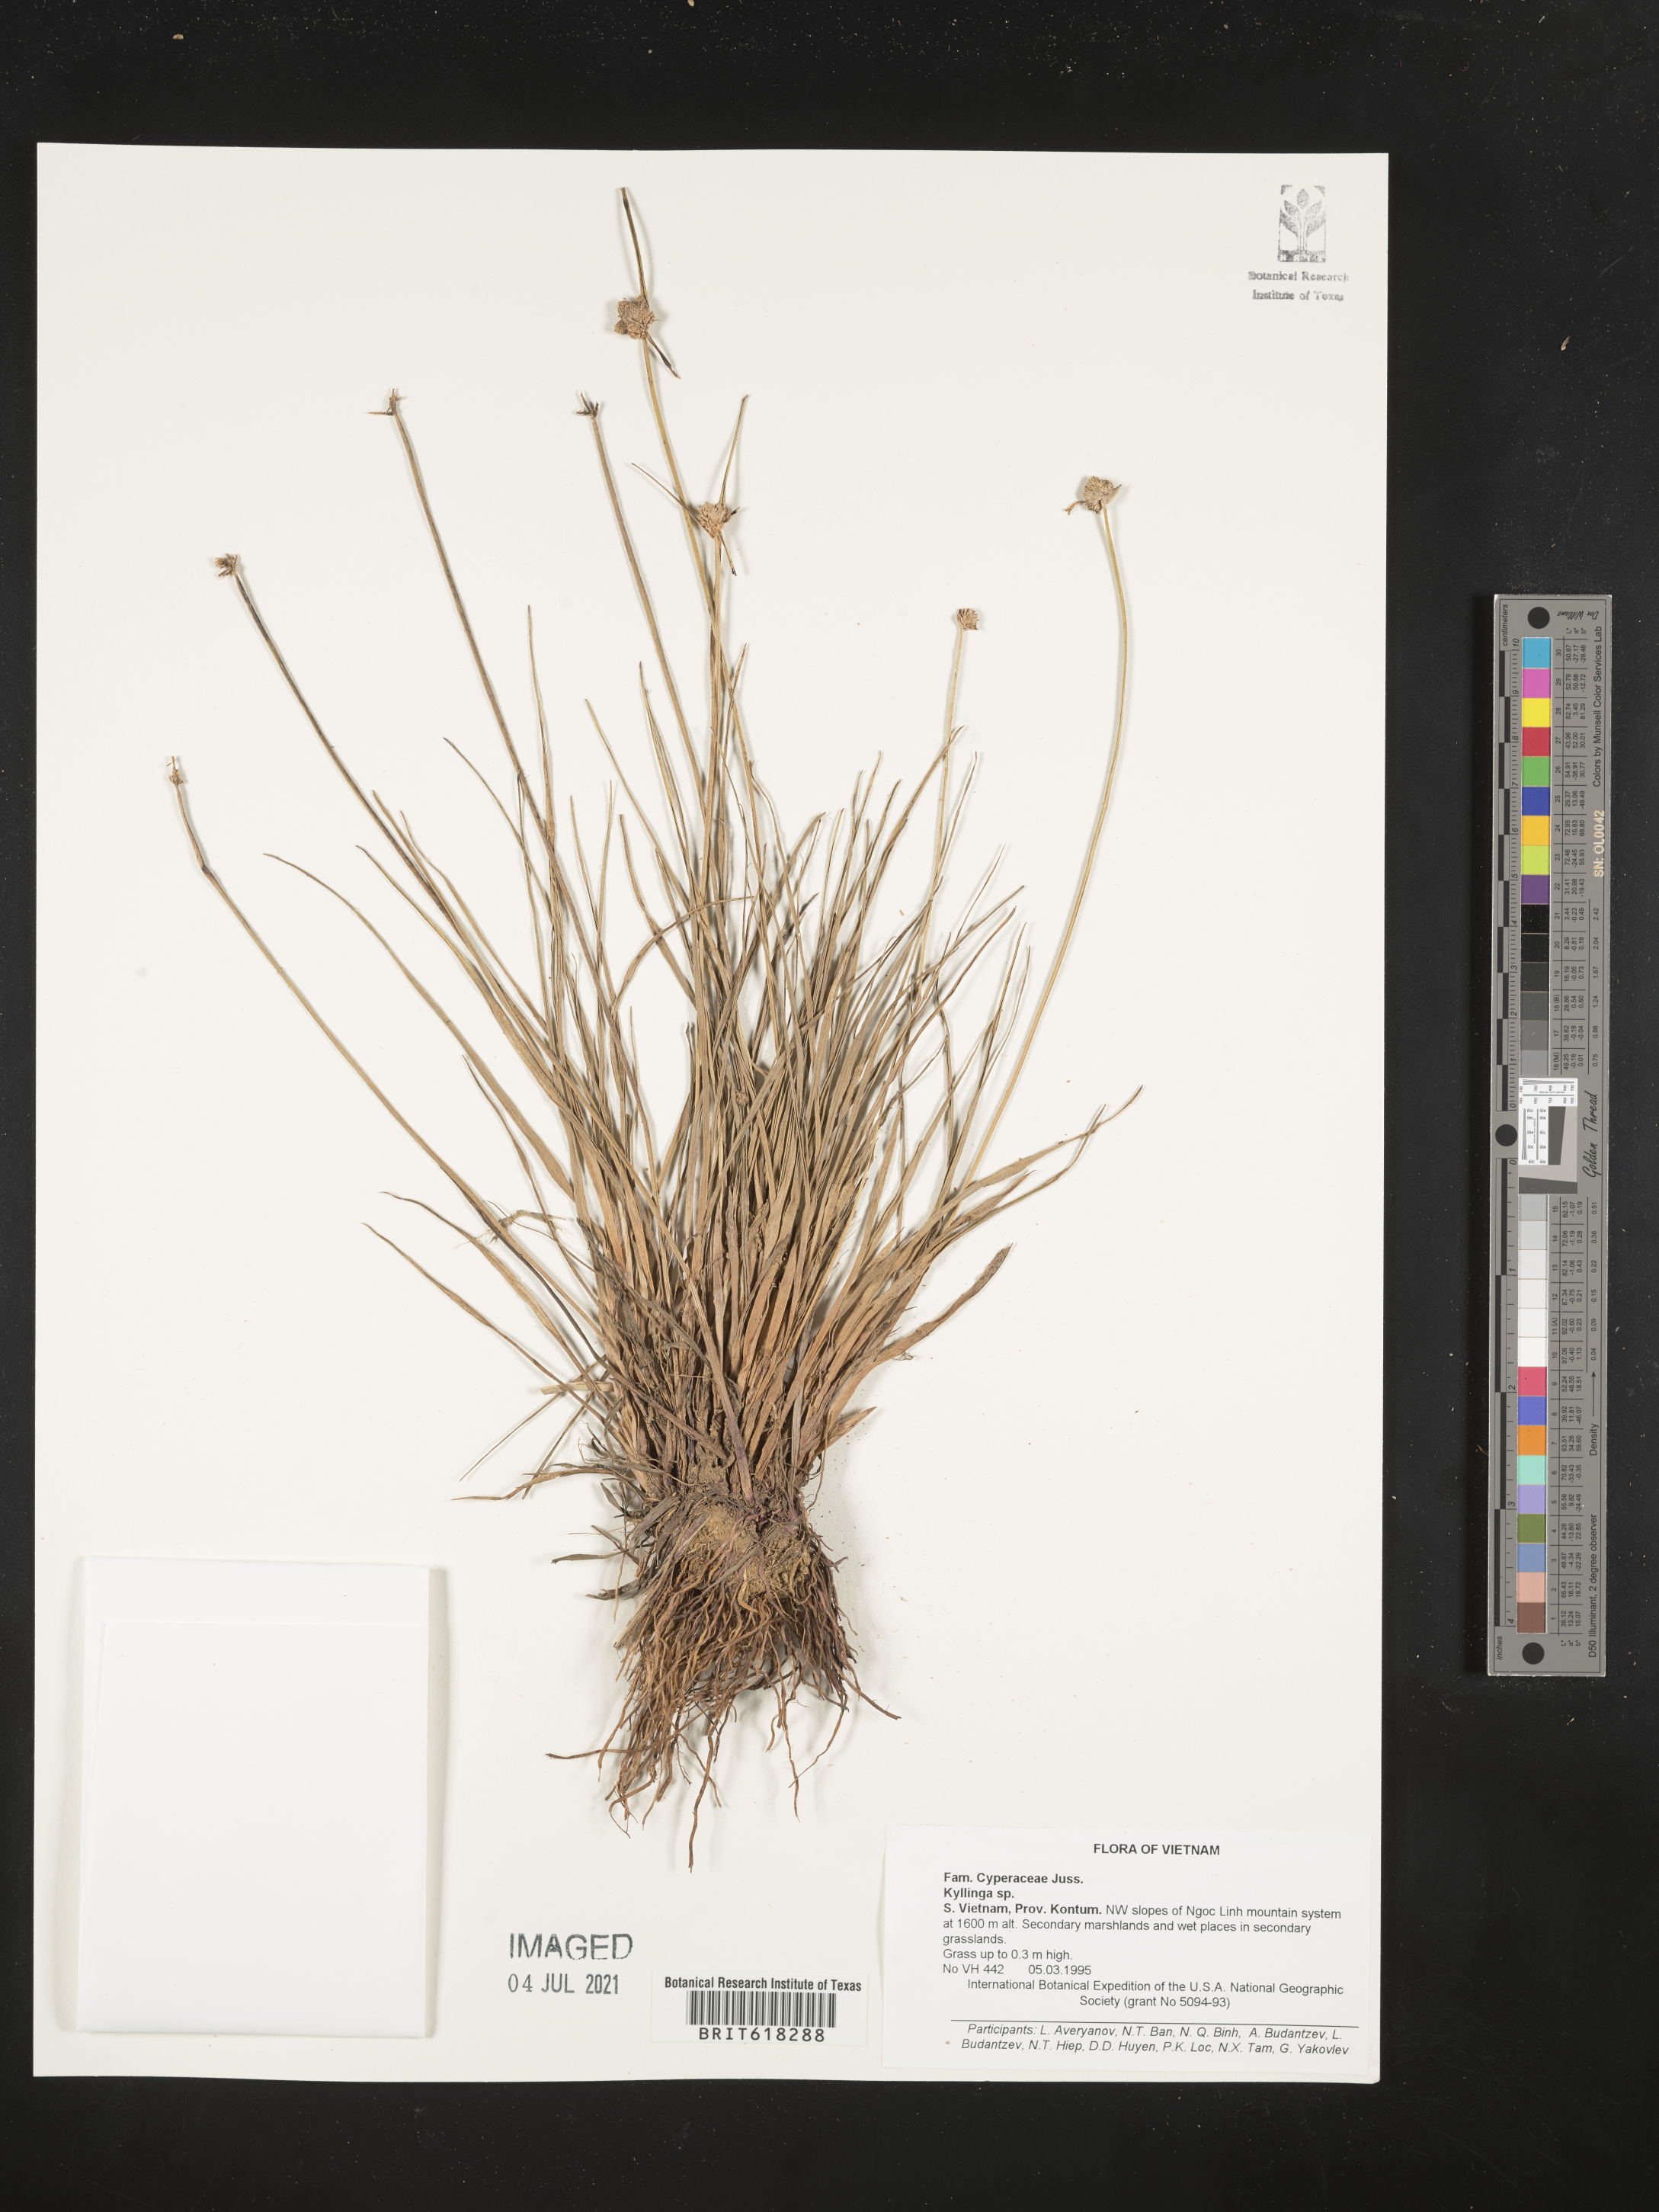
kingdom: Plantae
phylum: Tracheophyta
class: Liliopsida
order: Poales
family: Cyperaceae
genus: Cyperus
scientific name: Cyperus
